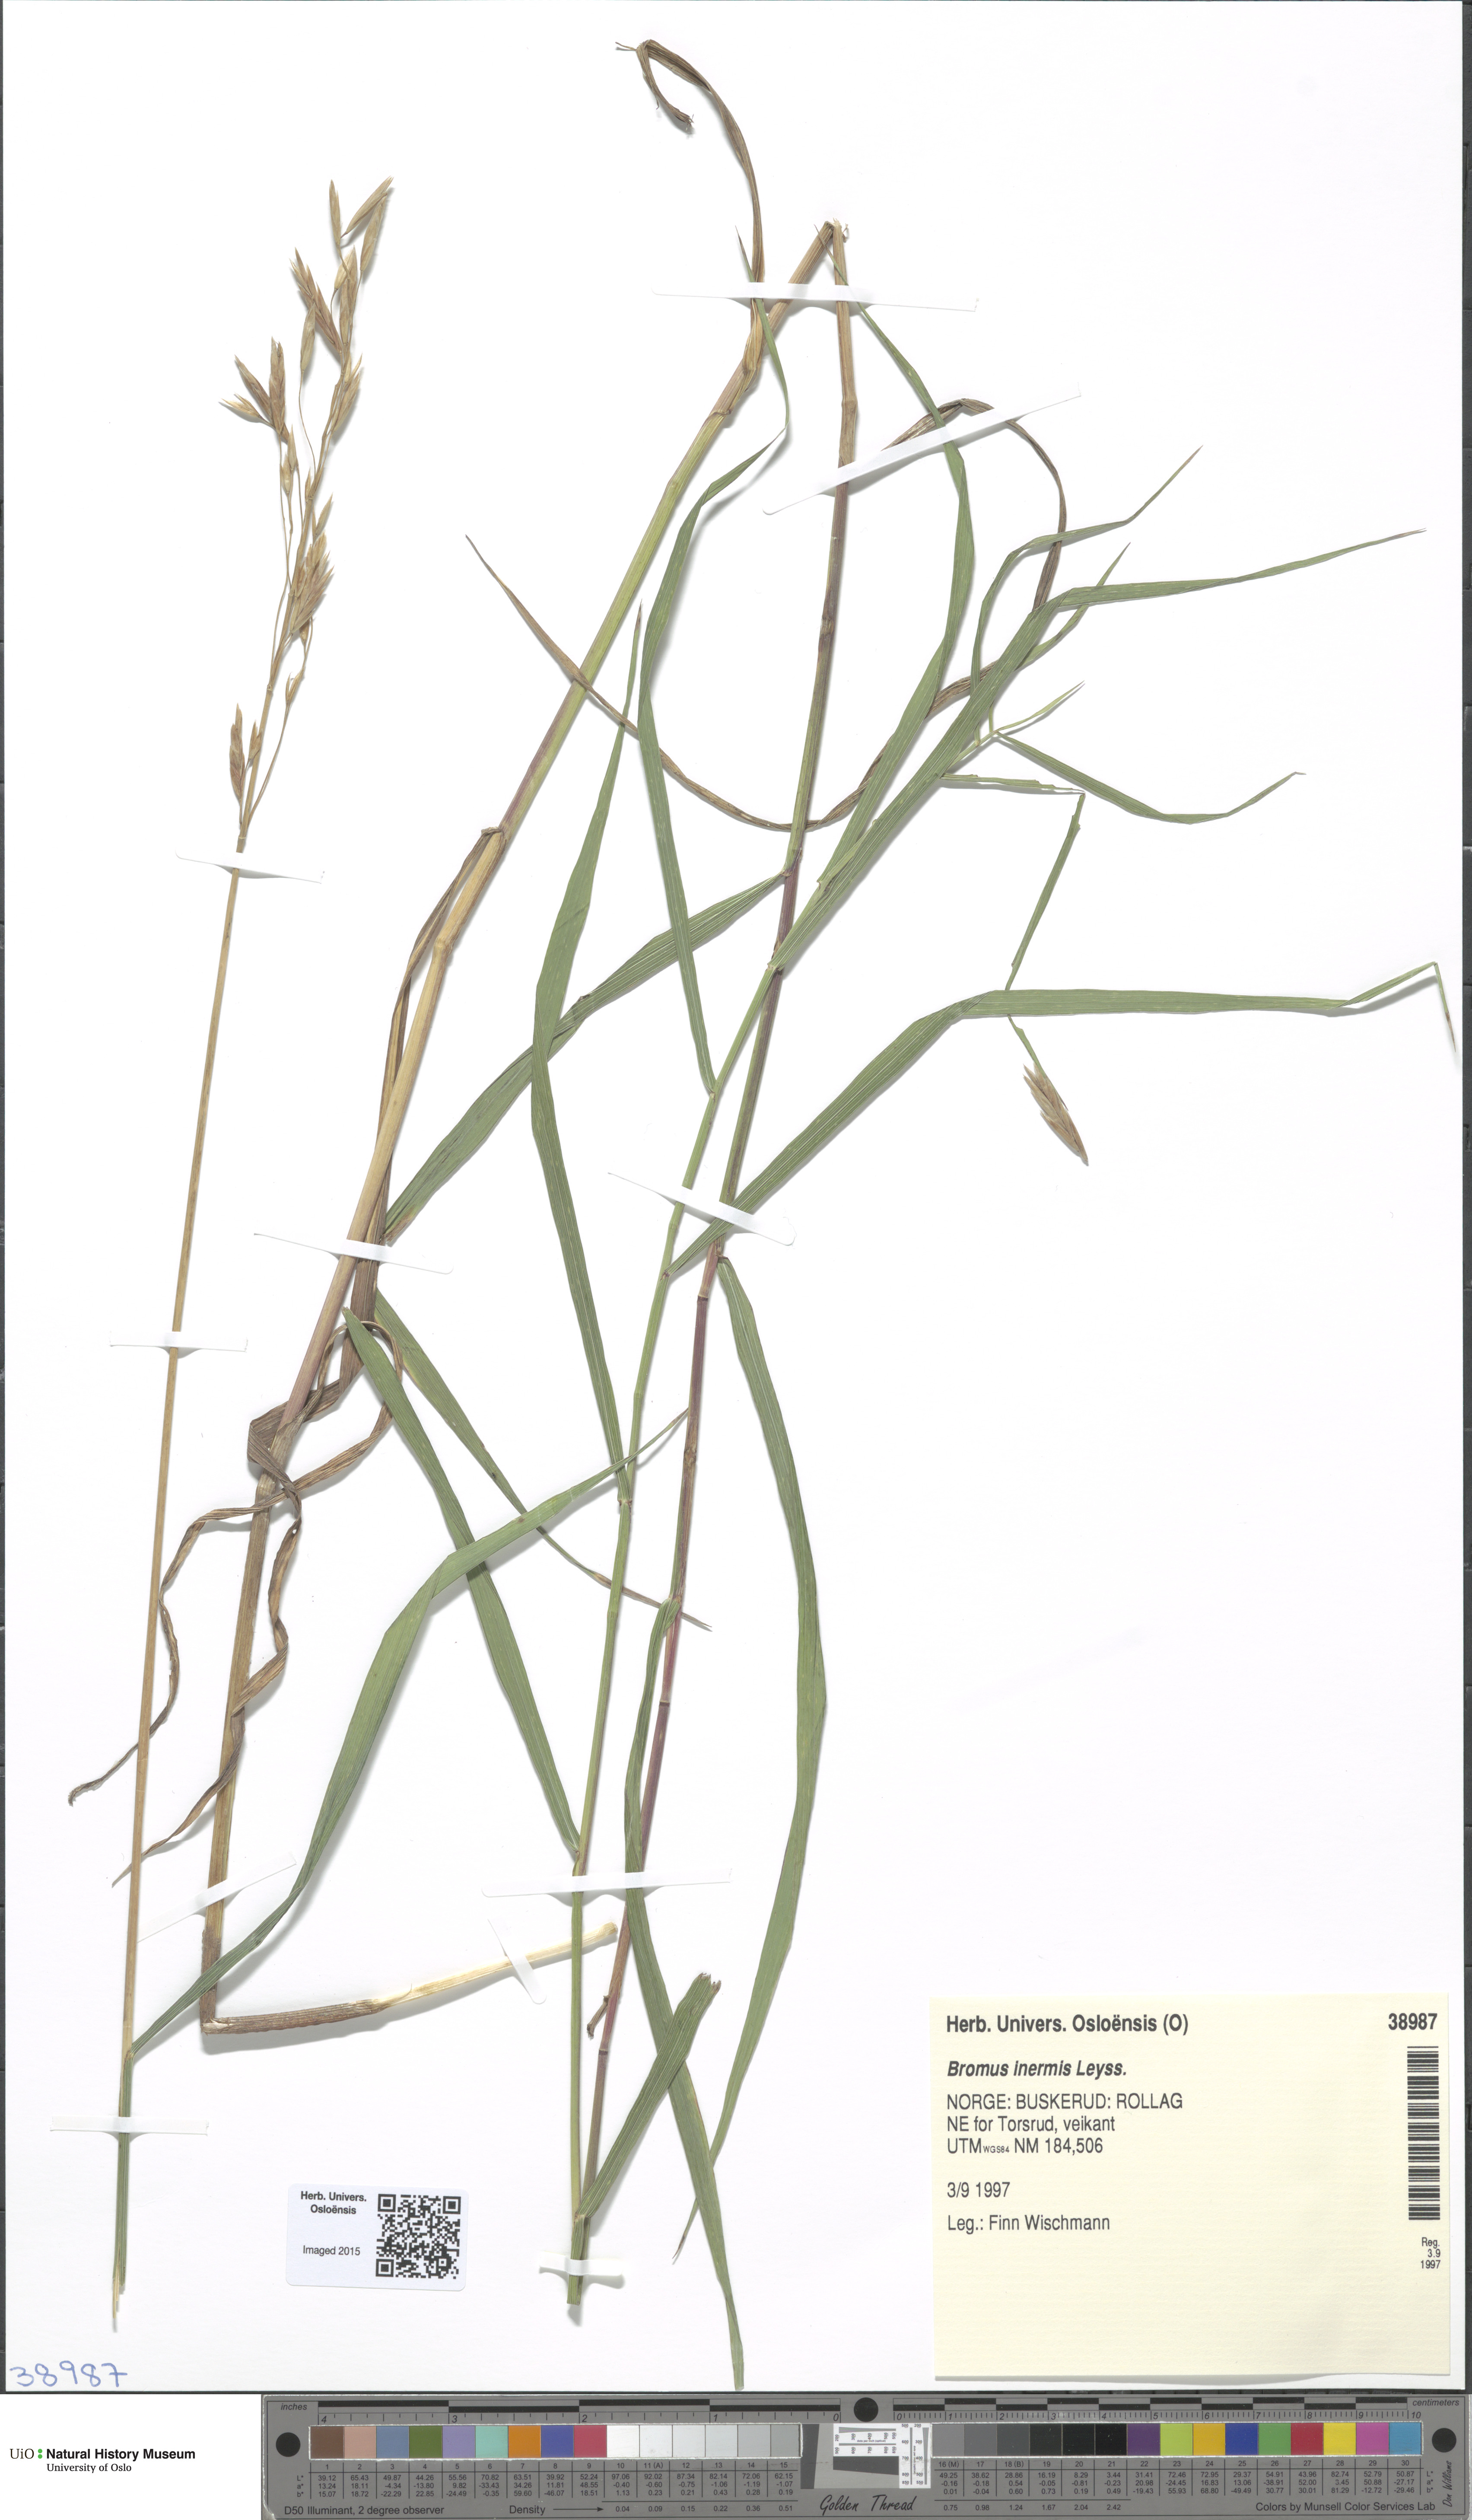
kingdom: Plantae
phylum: Tracheophyta
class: Liliopsida
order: Poales
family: Poaceae
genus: Bromus
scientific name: Bromus inermis
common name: Smooth brome
